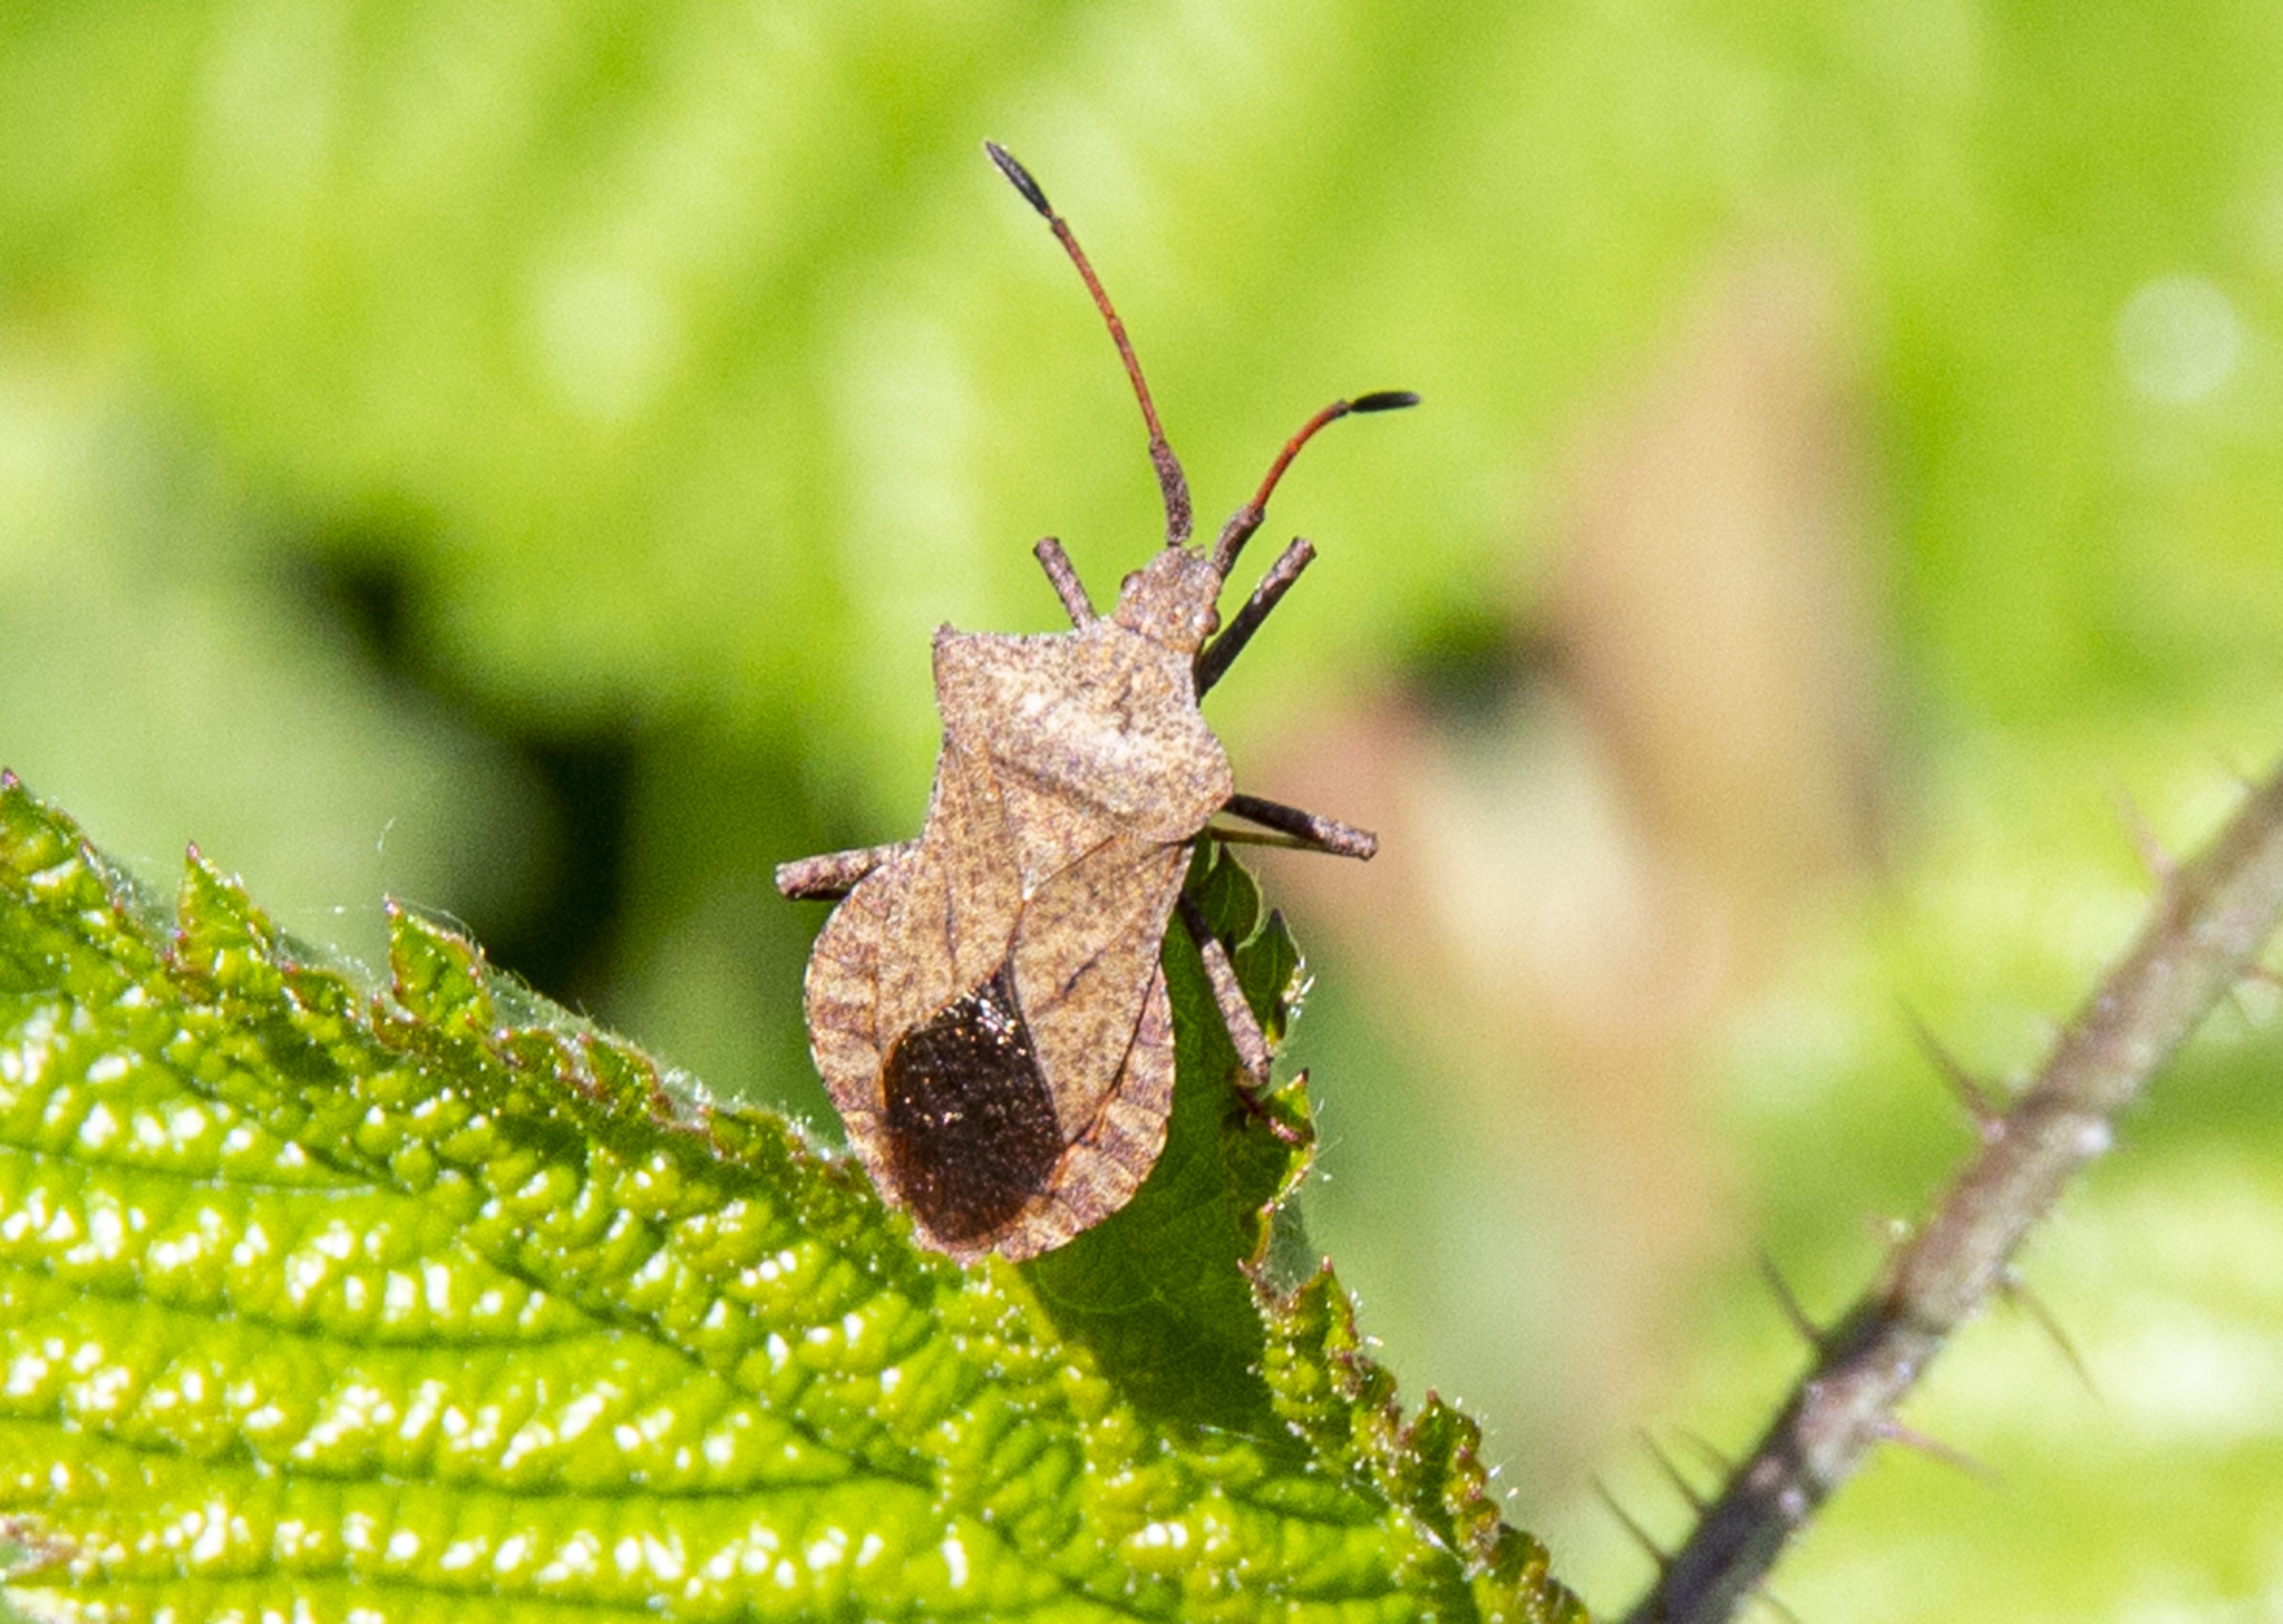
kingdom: Animalia
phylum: Arthropoda
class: Insecta
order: Hemiptera
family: Coreidae
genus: Coreus
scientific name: Coreus marginatus
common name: Skræppetæge
